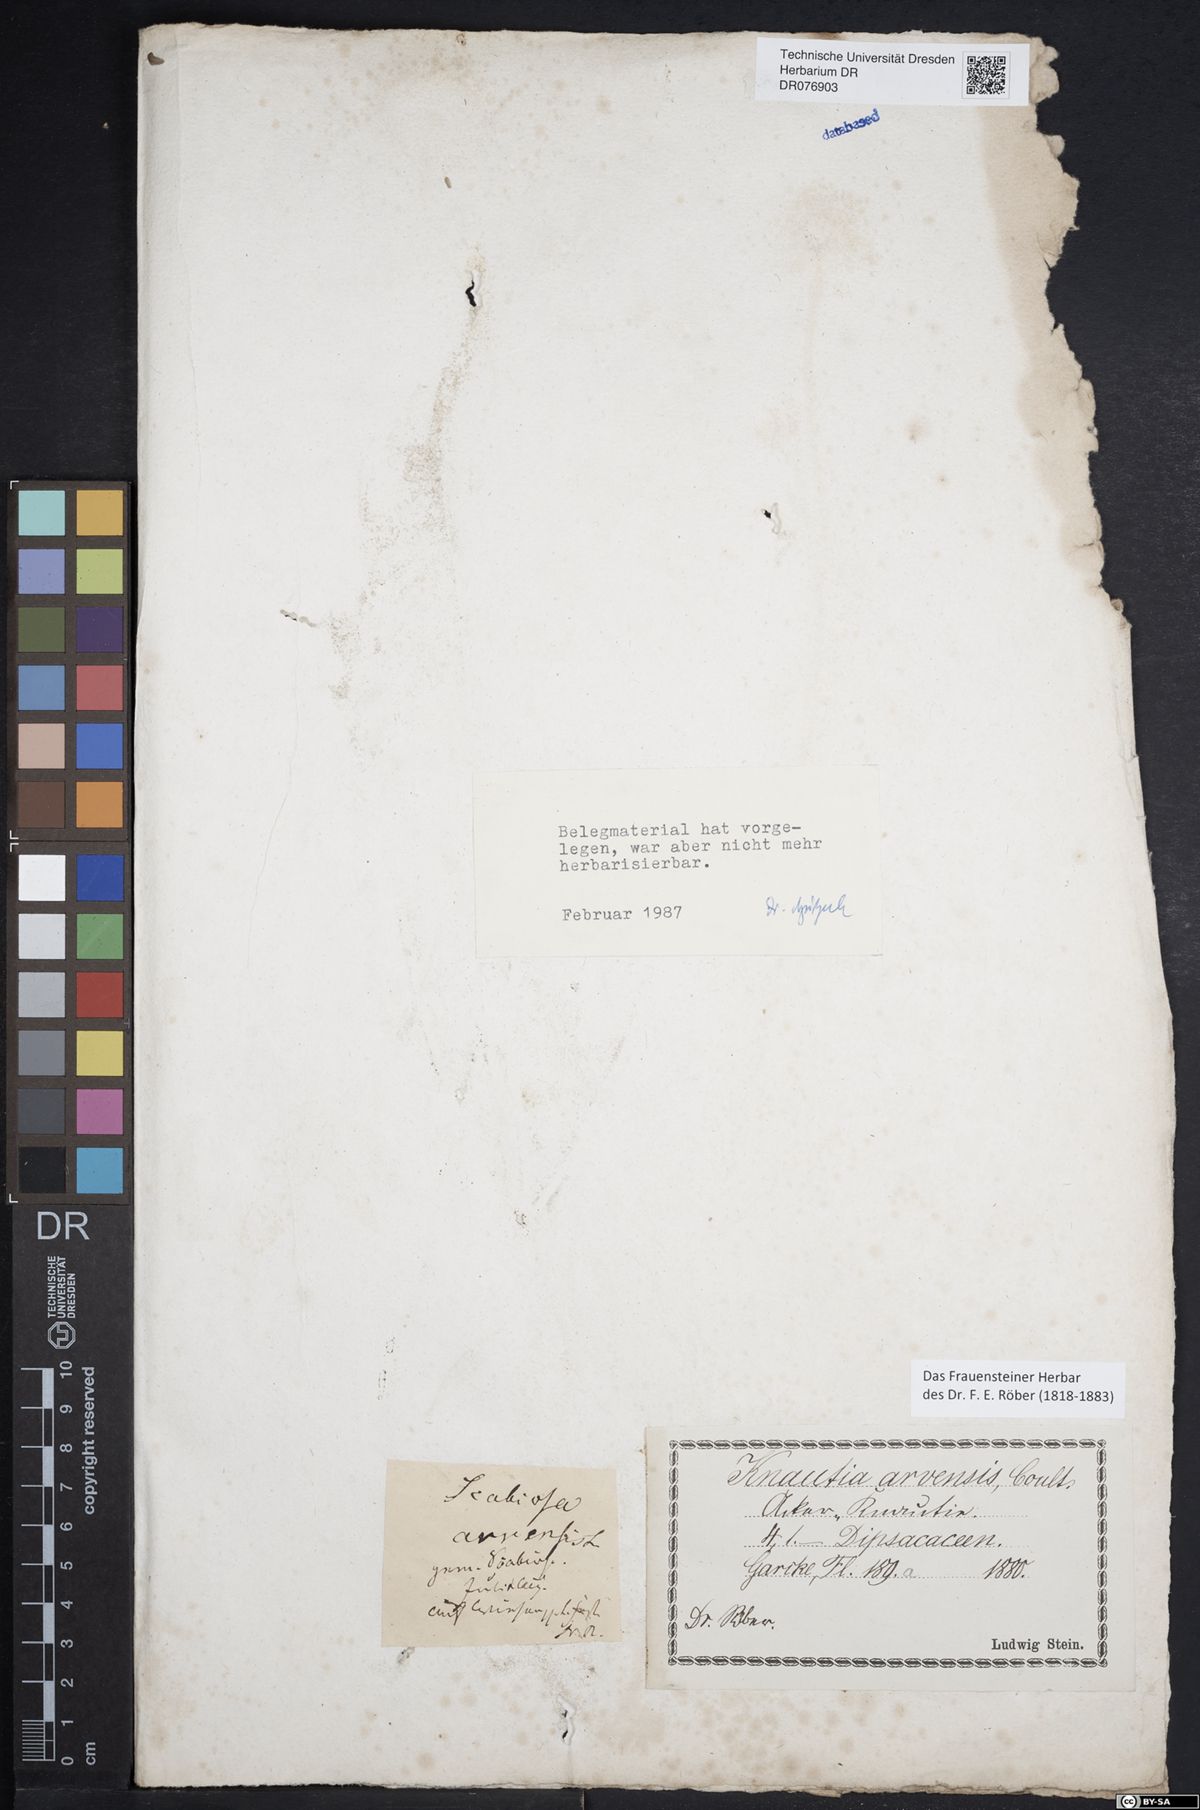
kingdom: Plantae
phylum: Tracheophyta
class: Magnoliopsida
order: Dipsacales
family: Caprifoliaceae
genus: Knautia
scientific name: Knautia arvensis
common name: Field scabiosa
